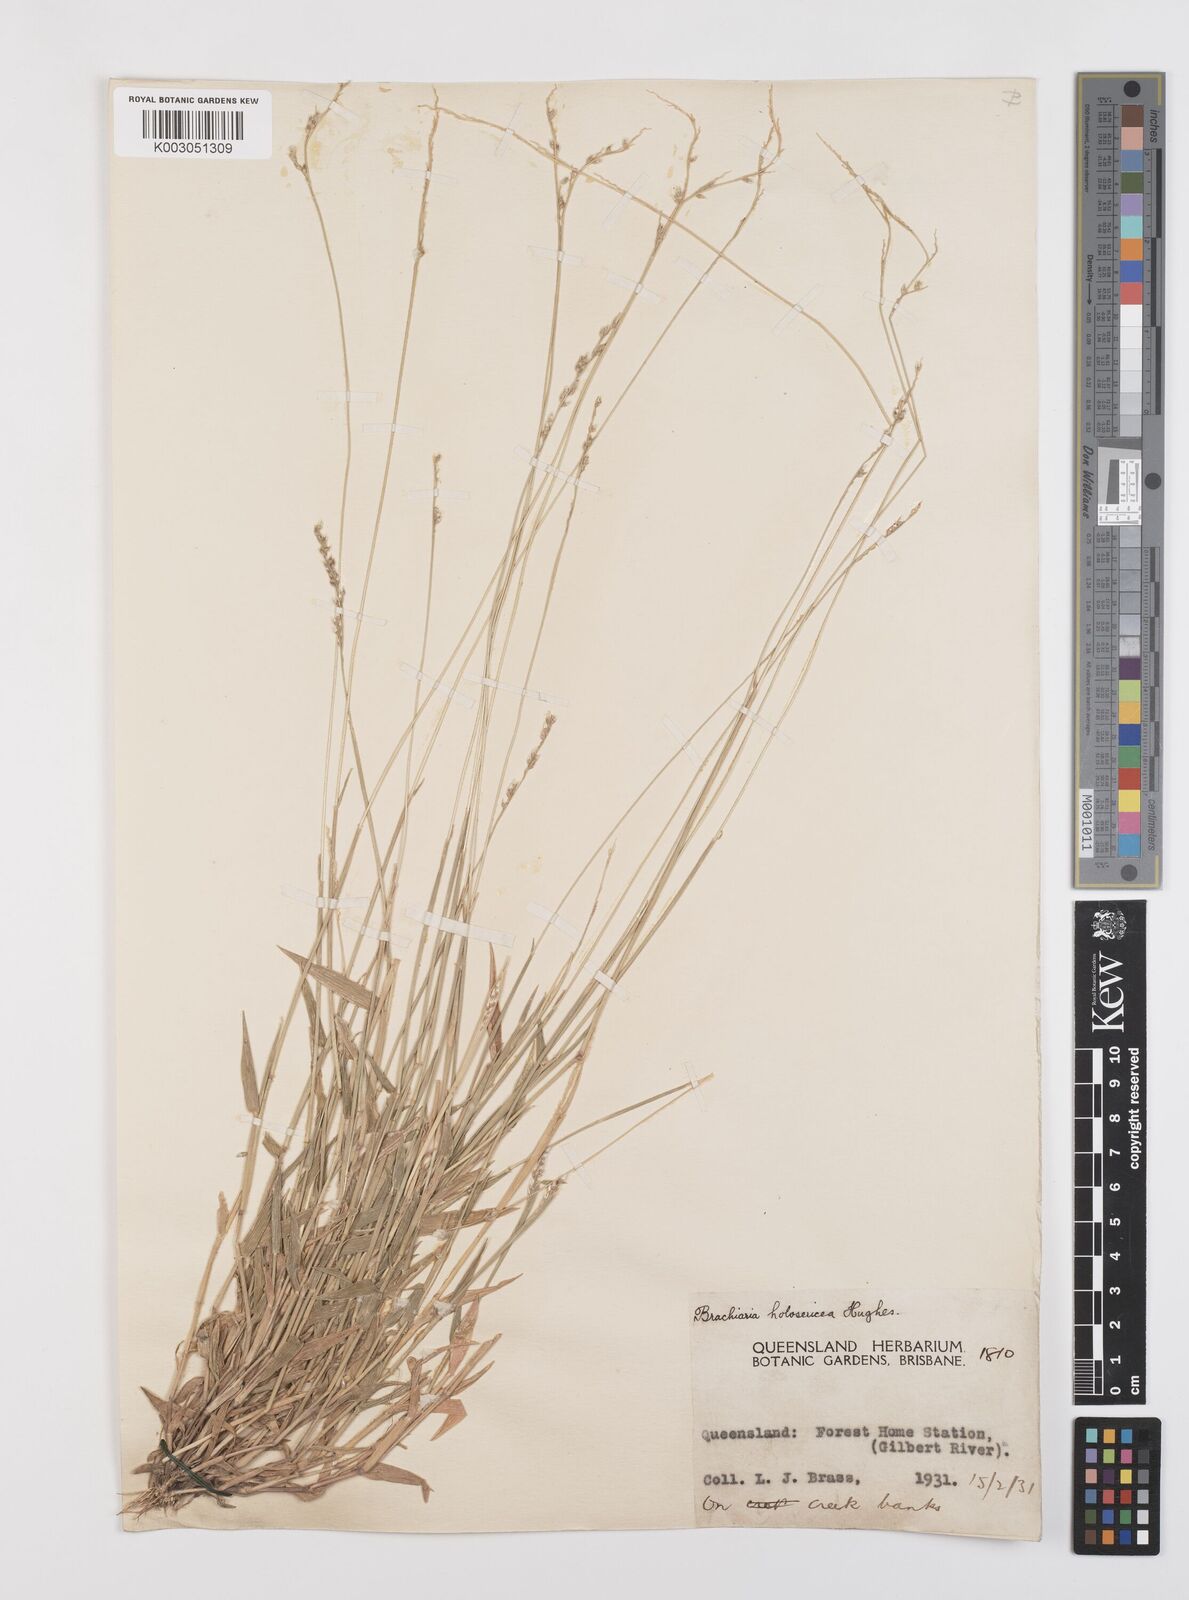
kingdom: Plantae
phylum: Tracheophyta
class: Liliopsida
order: Poales
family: Poaceae
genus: Urochloa
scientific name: Urochloa holosericea
